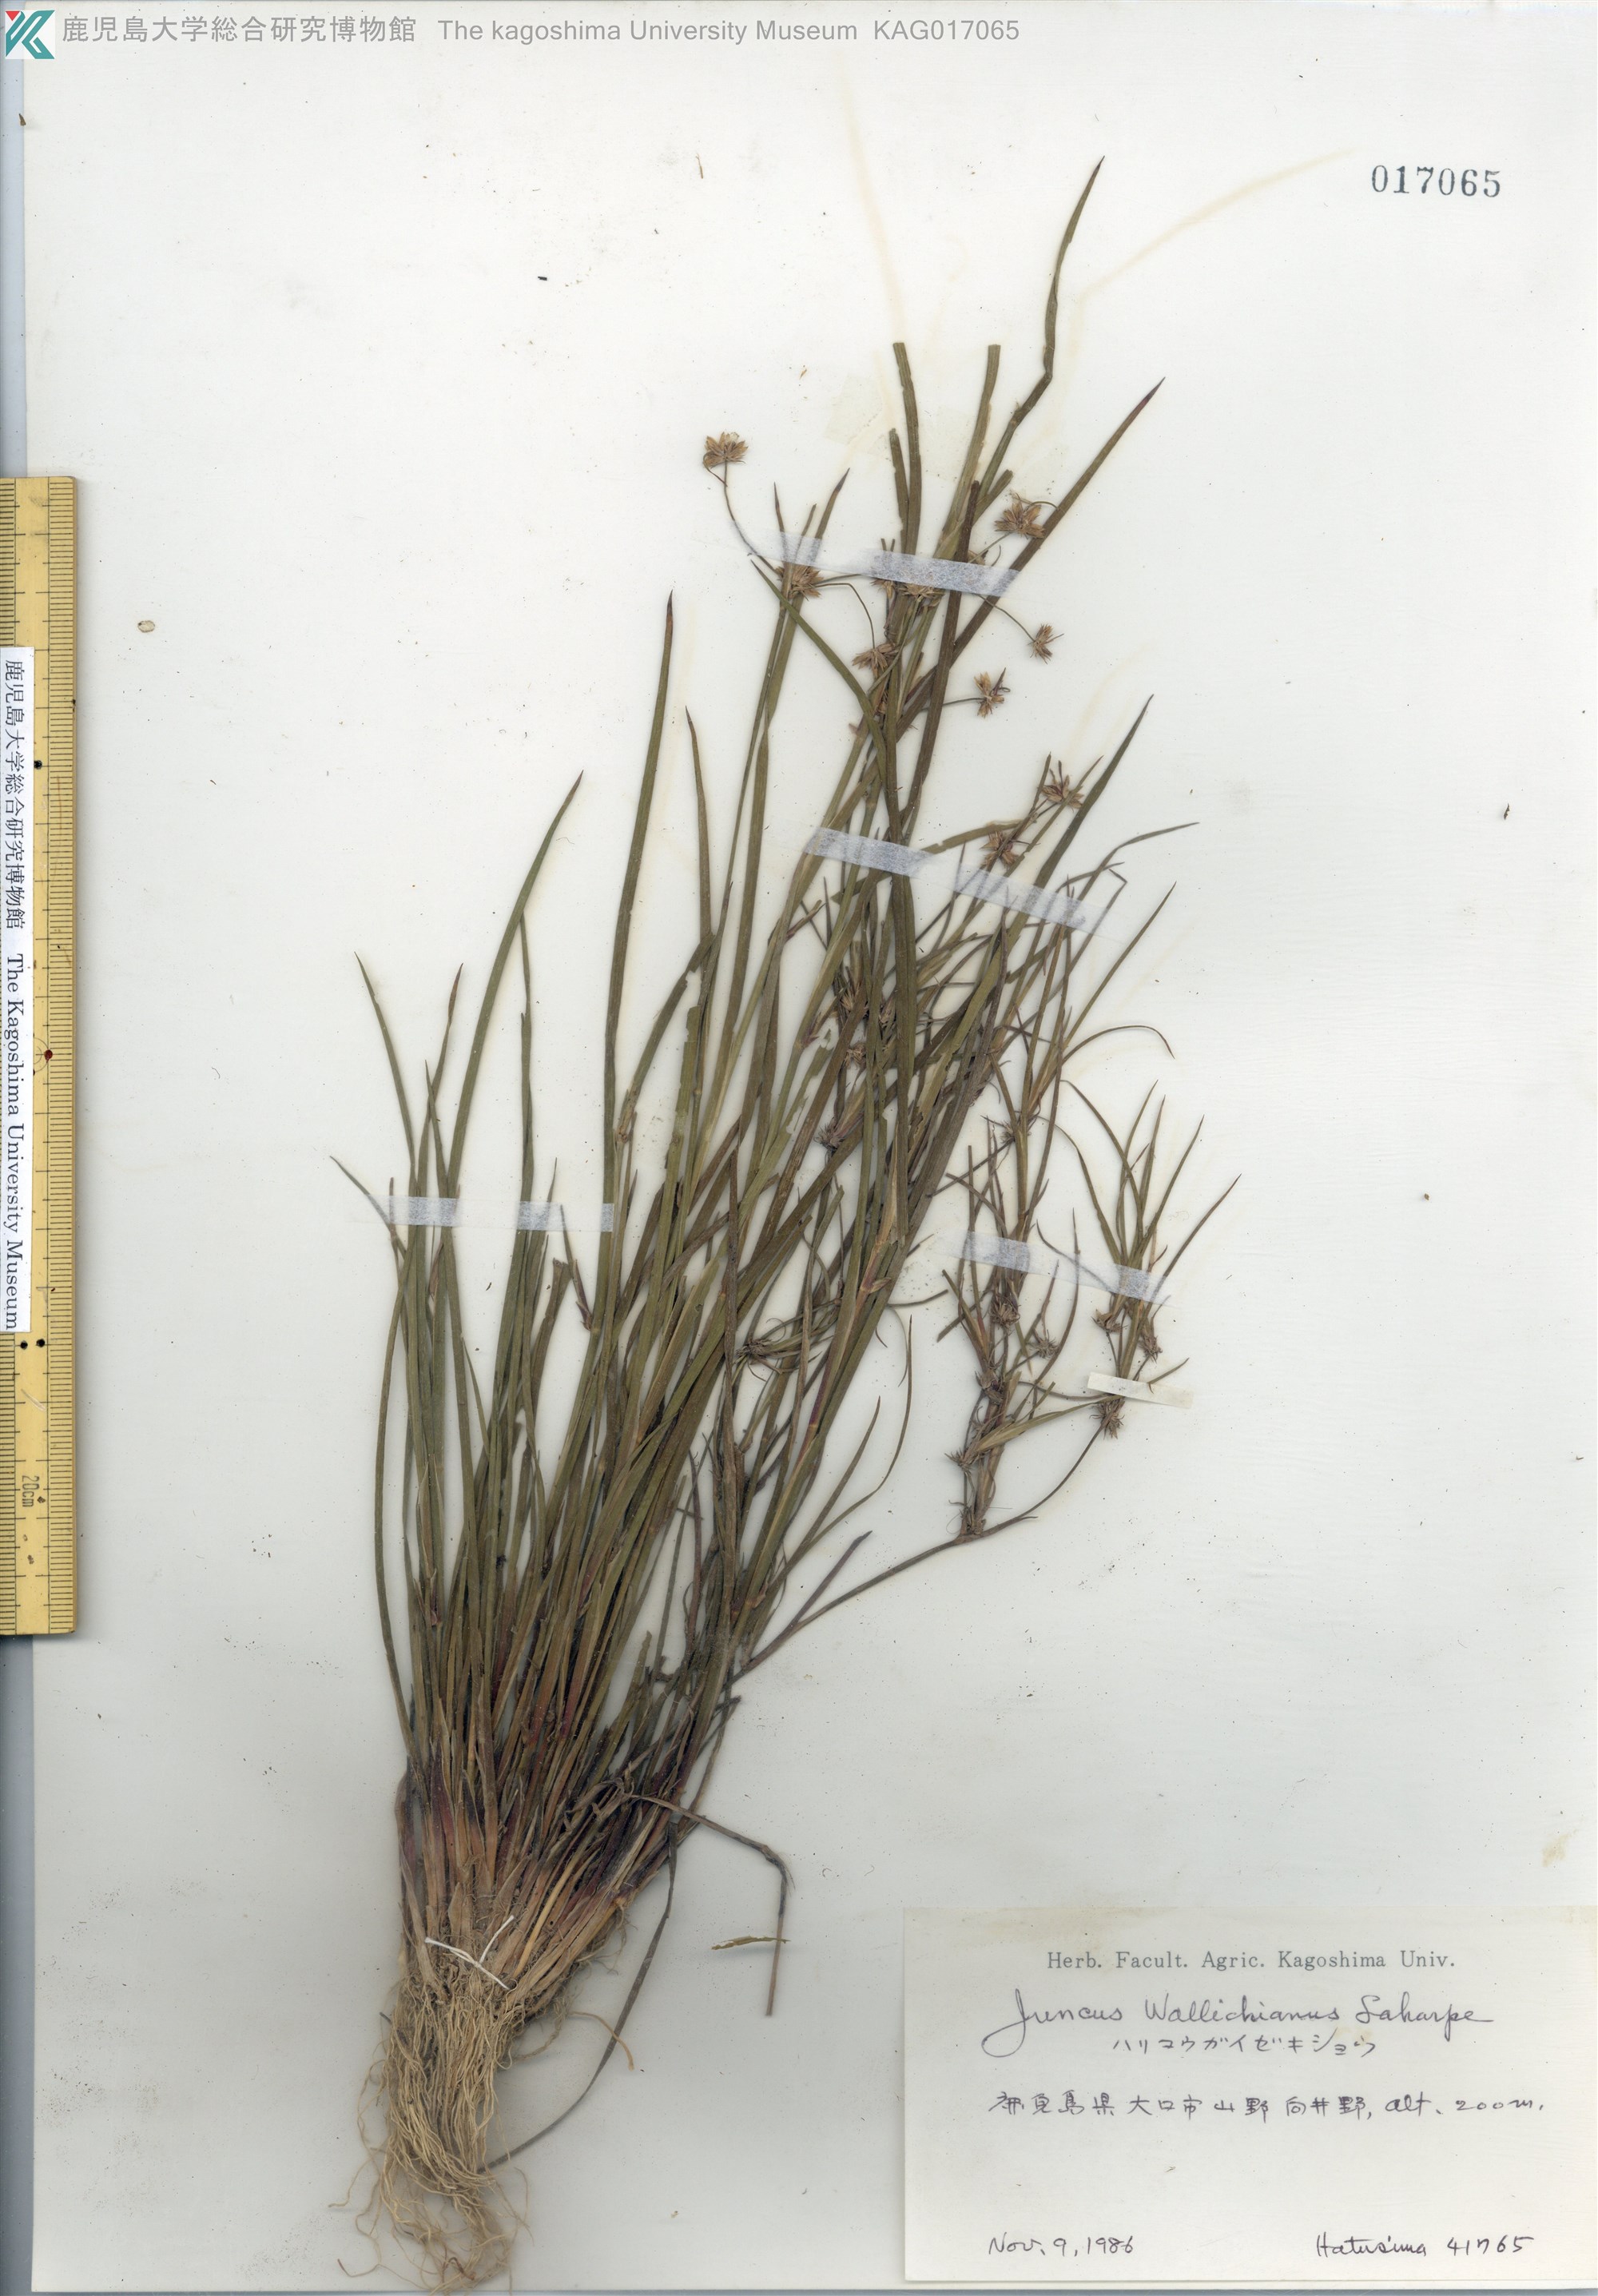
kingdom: Plantae
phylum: Tracheophyta
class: Liliopsida
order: Poales
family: Juncaceae
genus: Juncus
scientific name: Juncus prismatocarpus
